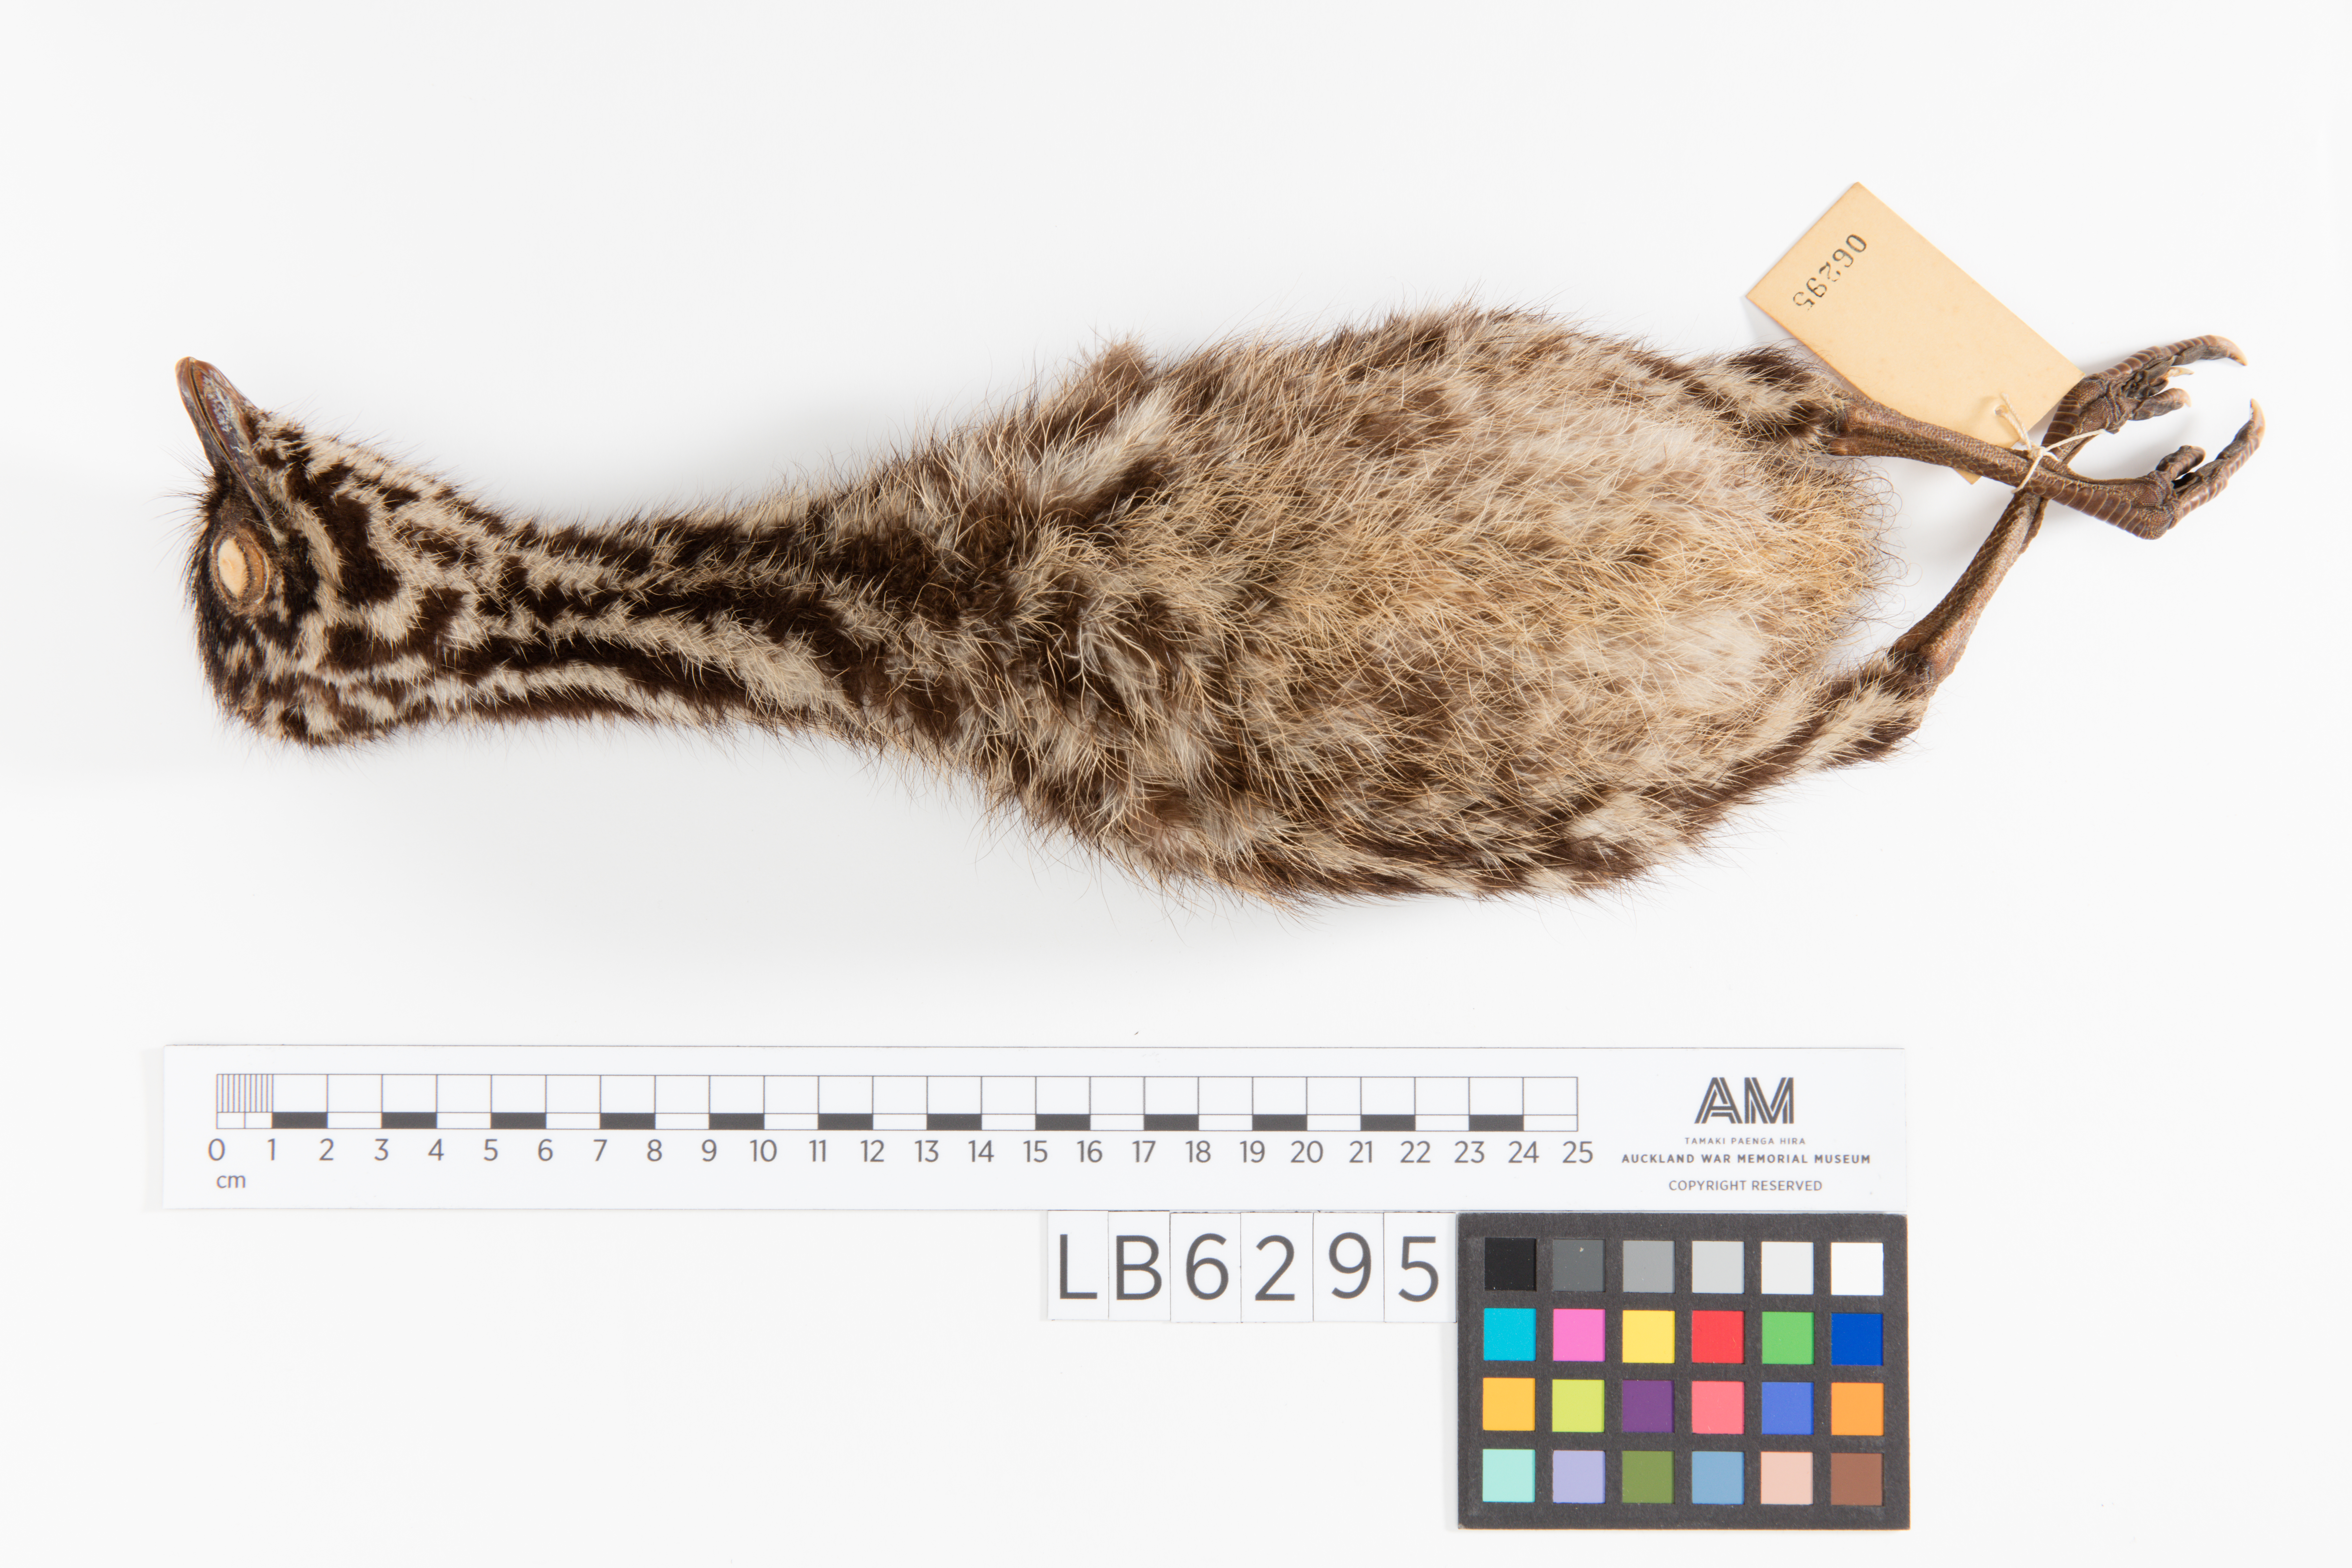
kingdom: Animalia
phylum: Chordata
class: Aves
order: Casuariiformes
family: Dromaiidae
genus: Dromaius
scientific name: Dromaius novaehollandiae
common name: Emu
